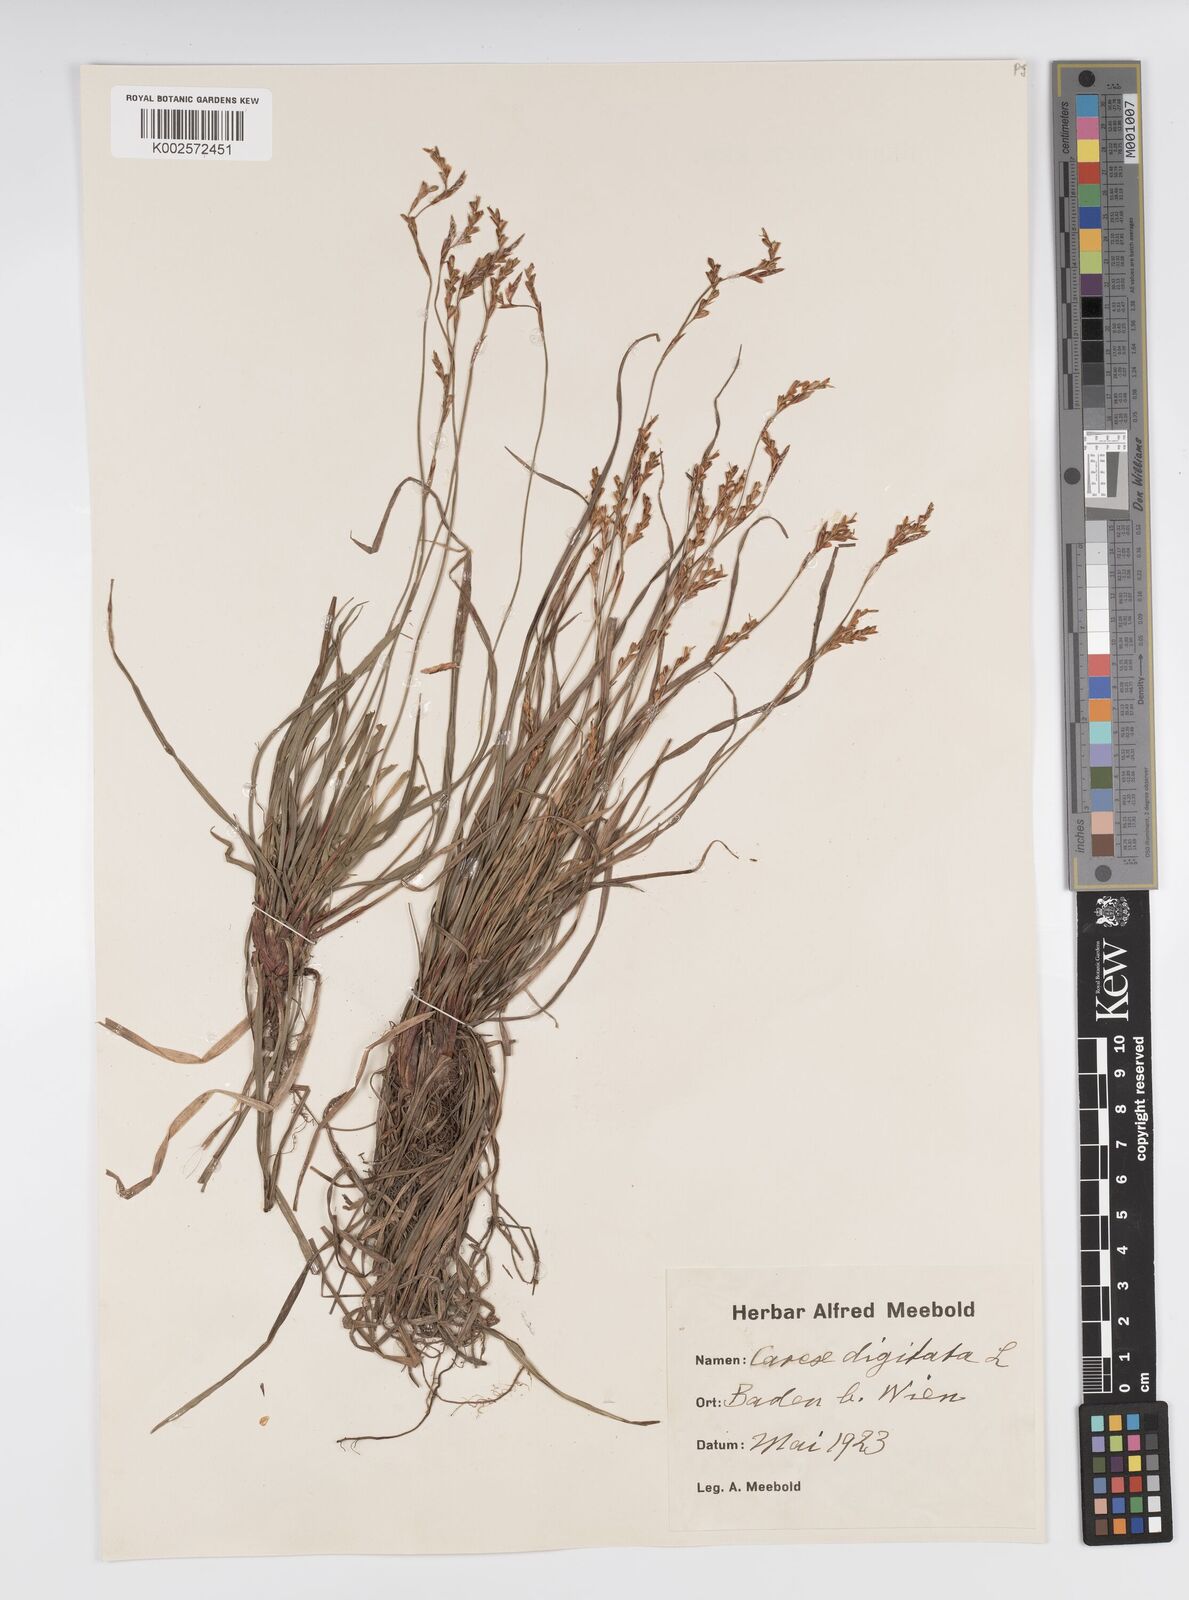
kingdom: Plantae
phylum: Tracheophyta
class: Liliopsida
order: Poales
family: Cyperaceae
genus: Carex
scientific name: Carex digitata
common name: Fingered sedge
